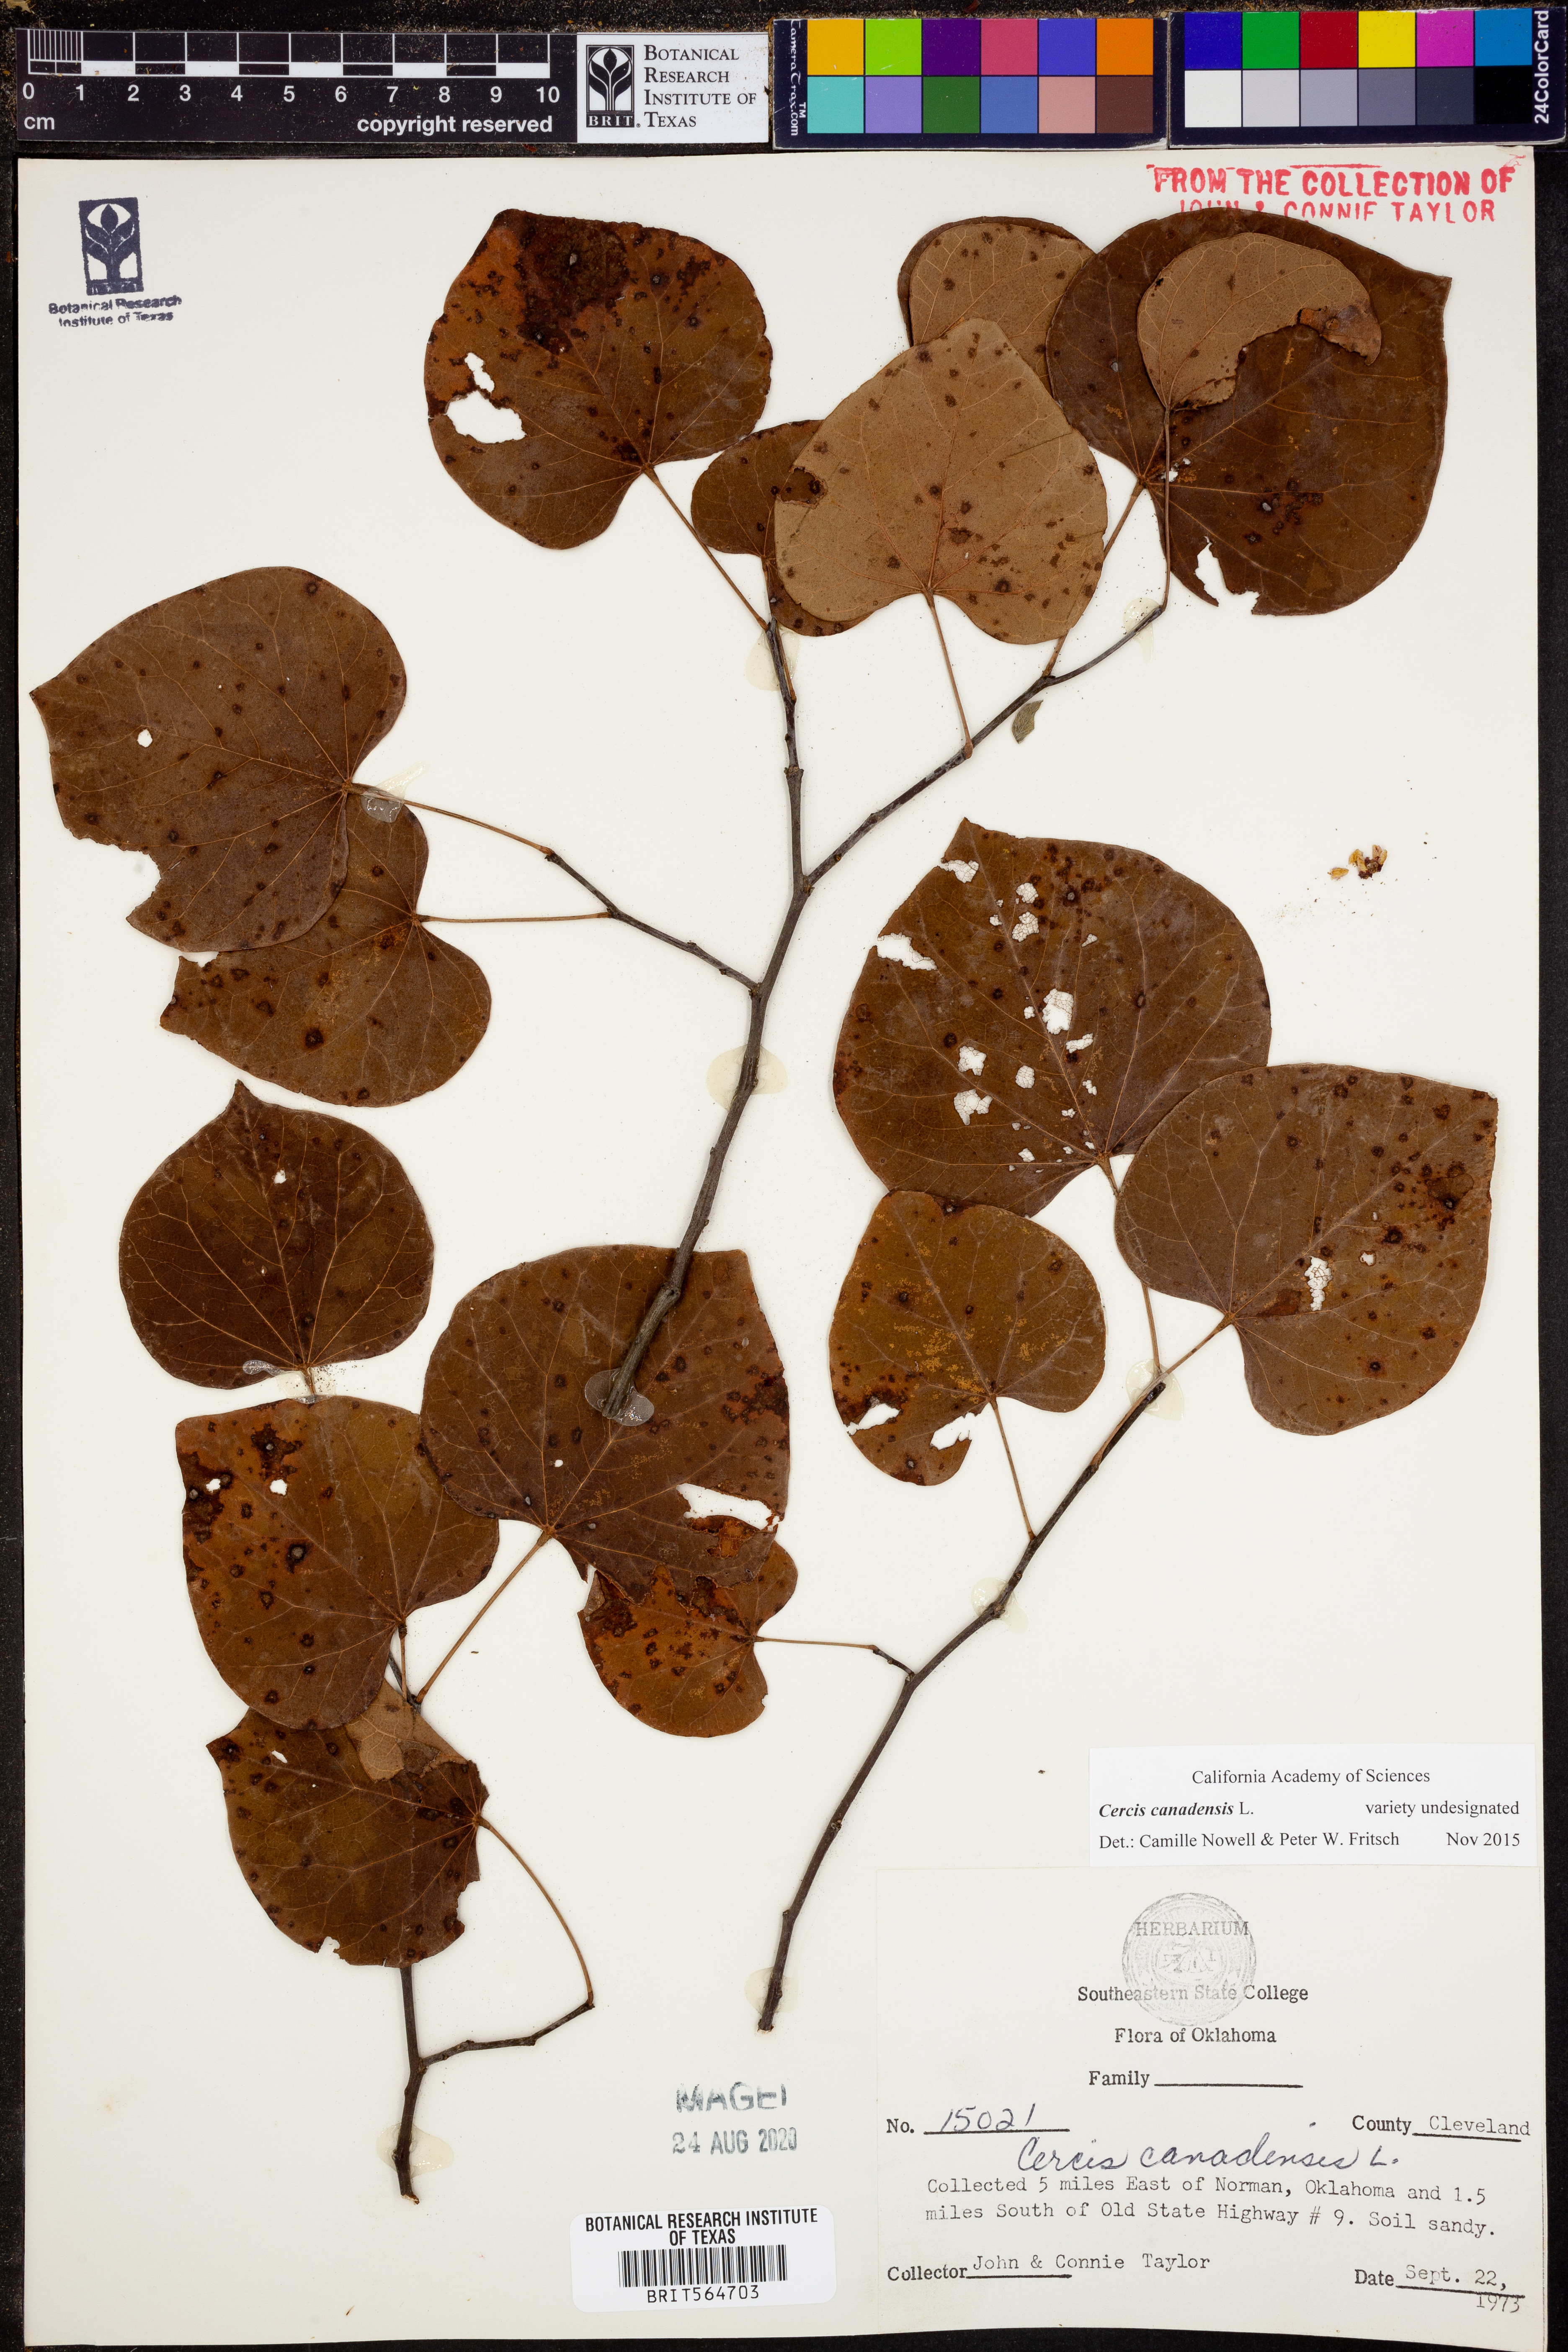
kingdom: Plantae
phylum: Tracheophyta
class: Magnoliopsida
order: Fabales
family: Fabaceae
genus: Cercis
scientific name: Cercis canadensis
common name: Eastern redbud
